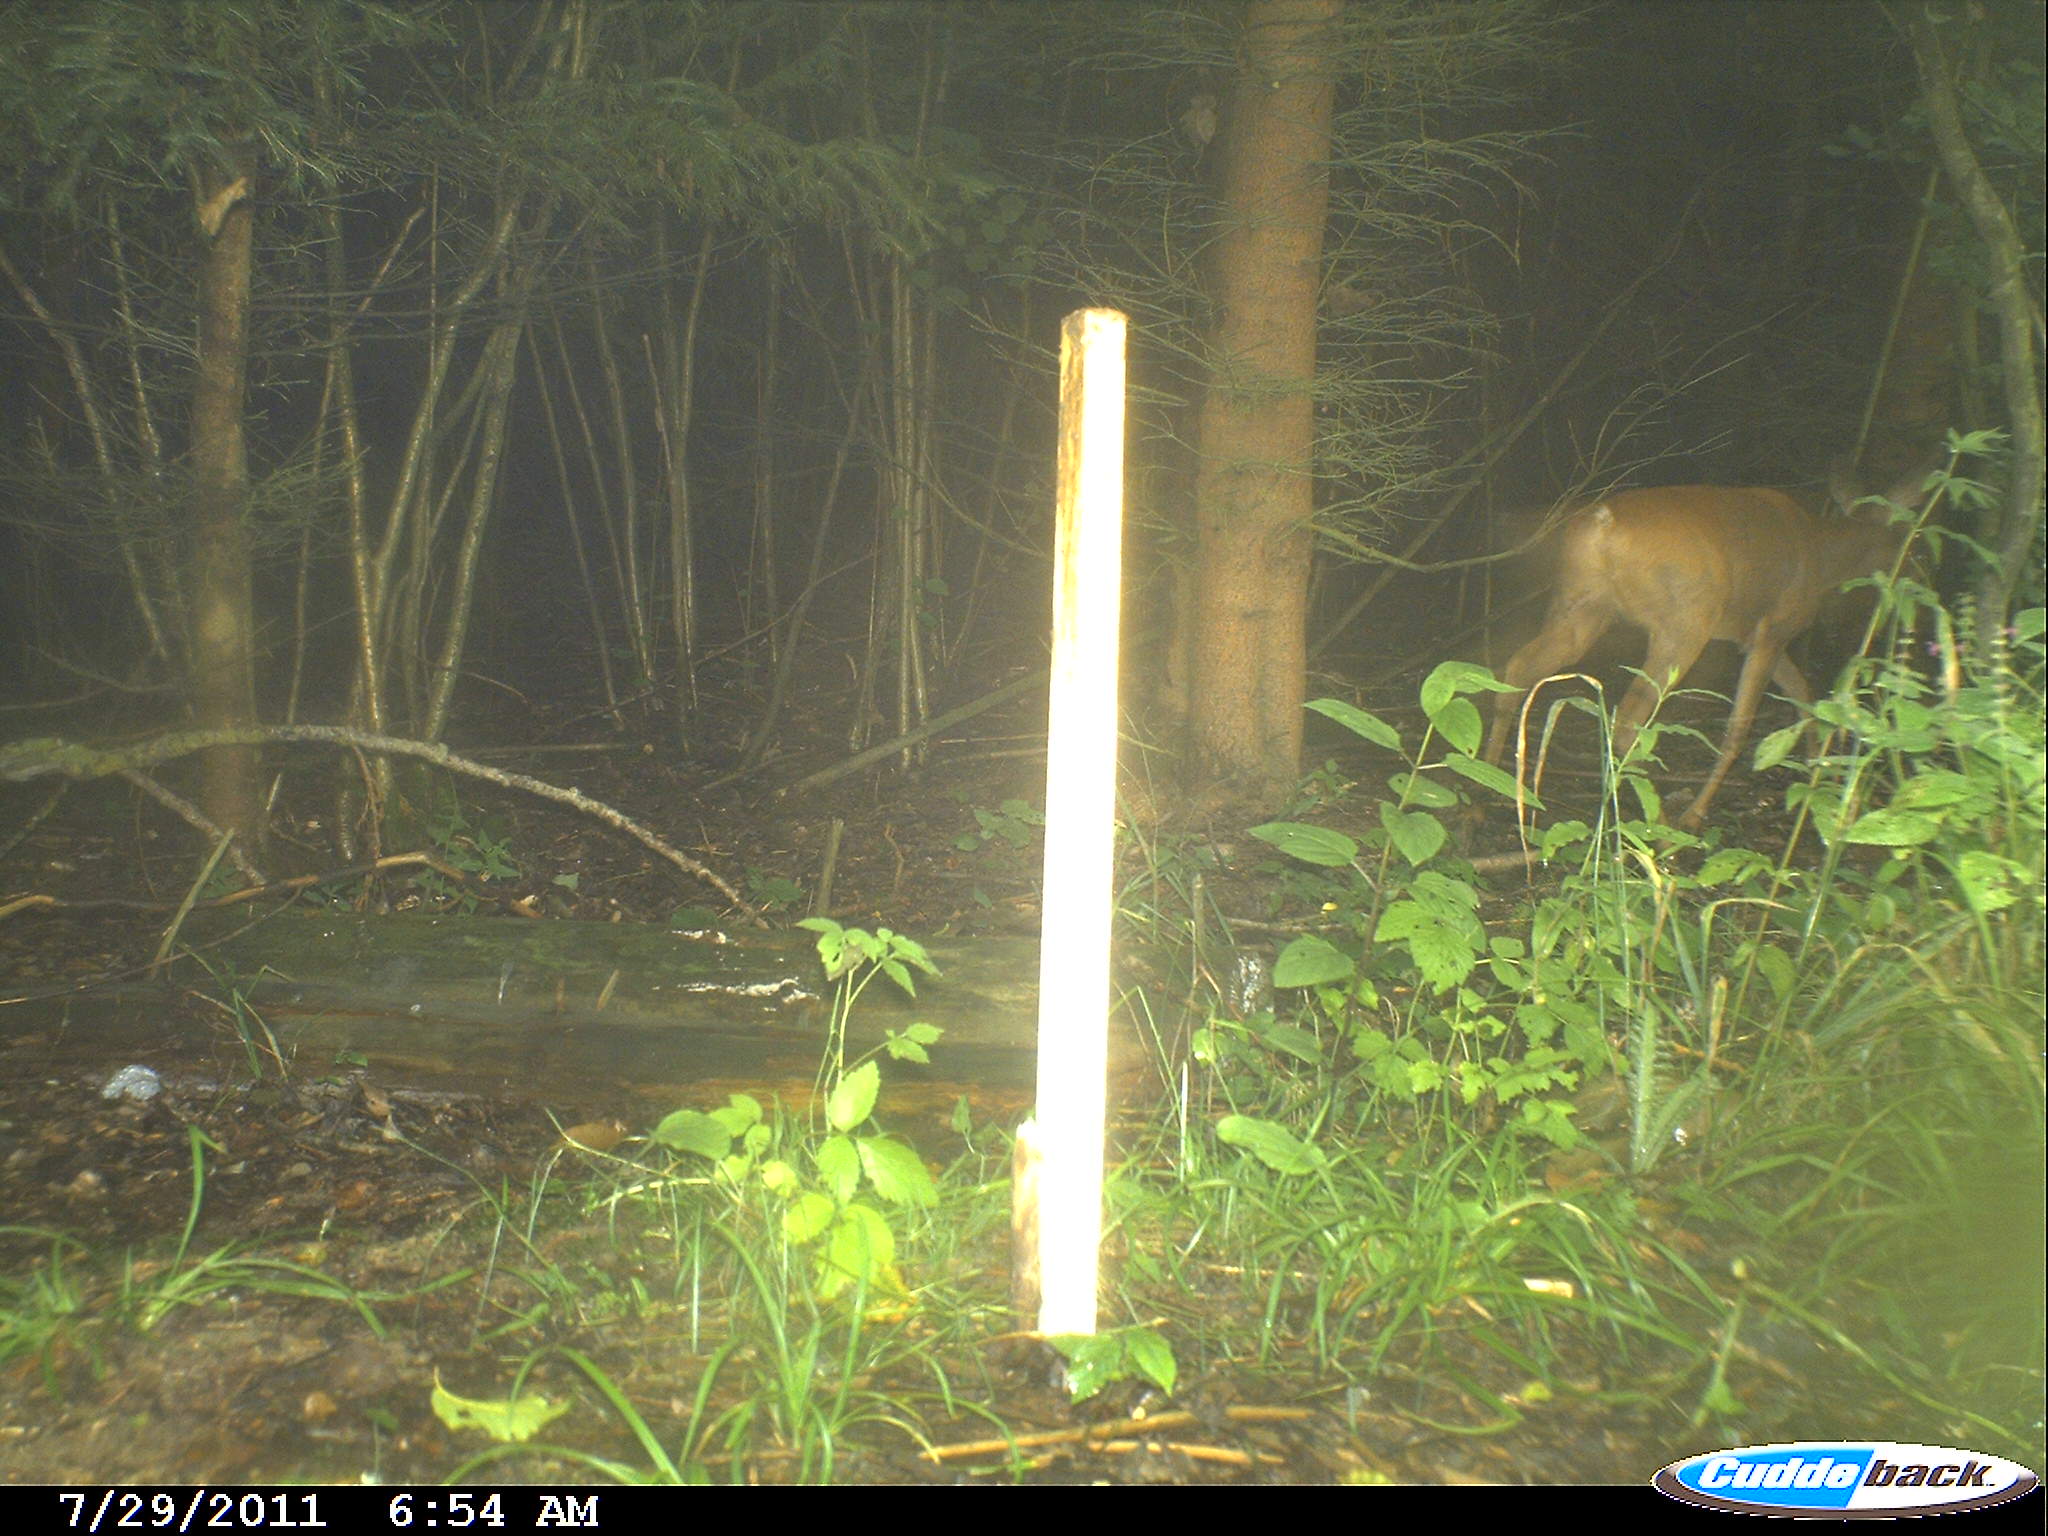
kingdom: Animalia
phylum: Chordata
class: Mammalia
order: Artiodactyla
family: Cervidae
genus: Capreolus
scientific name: Capreolus capreolus
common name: Western roe deer
